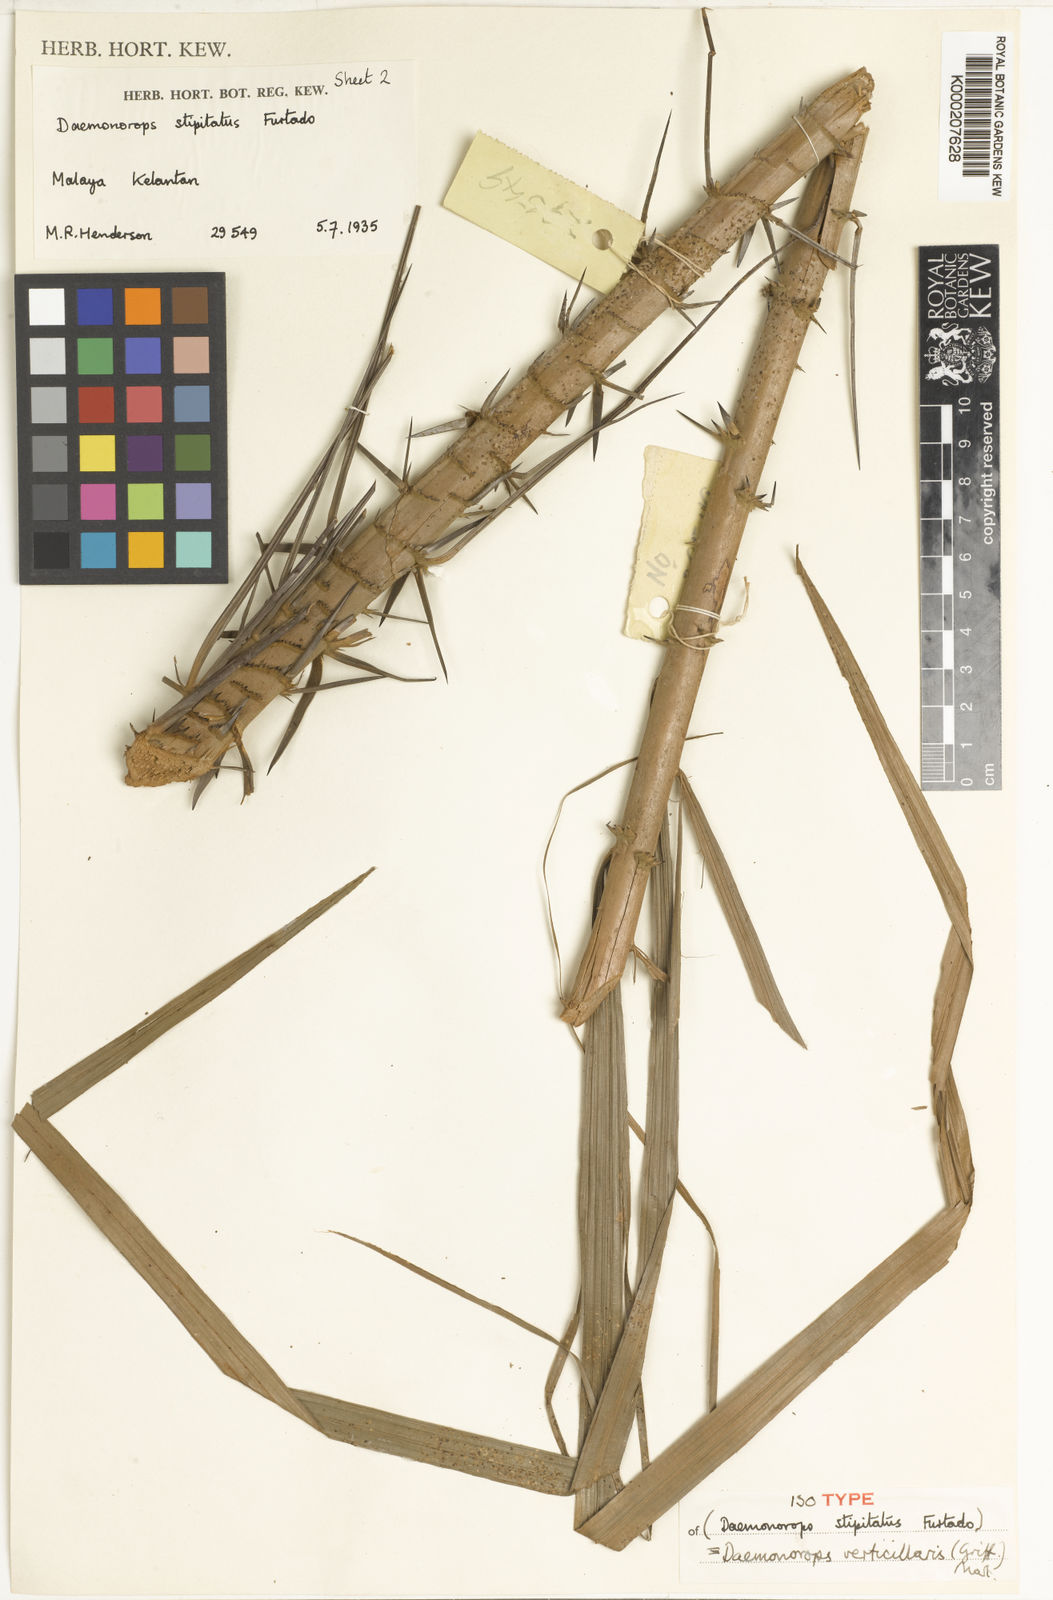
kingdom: Plantae
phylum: Tracheophyta
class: Liliopsida
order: Arecales
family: Arecaceae
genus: Calamus
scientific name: Calamus verticillaris
